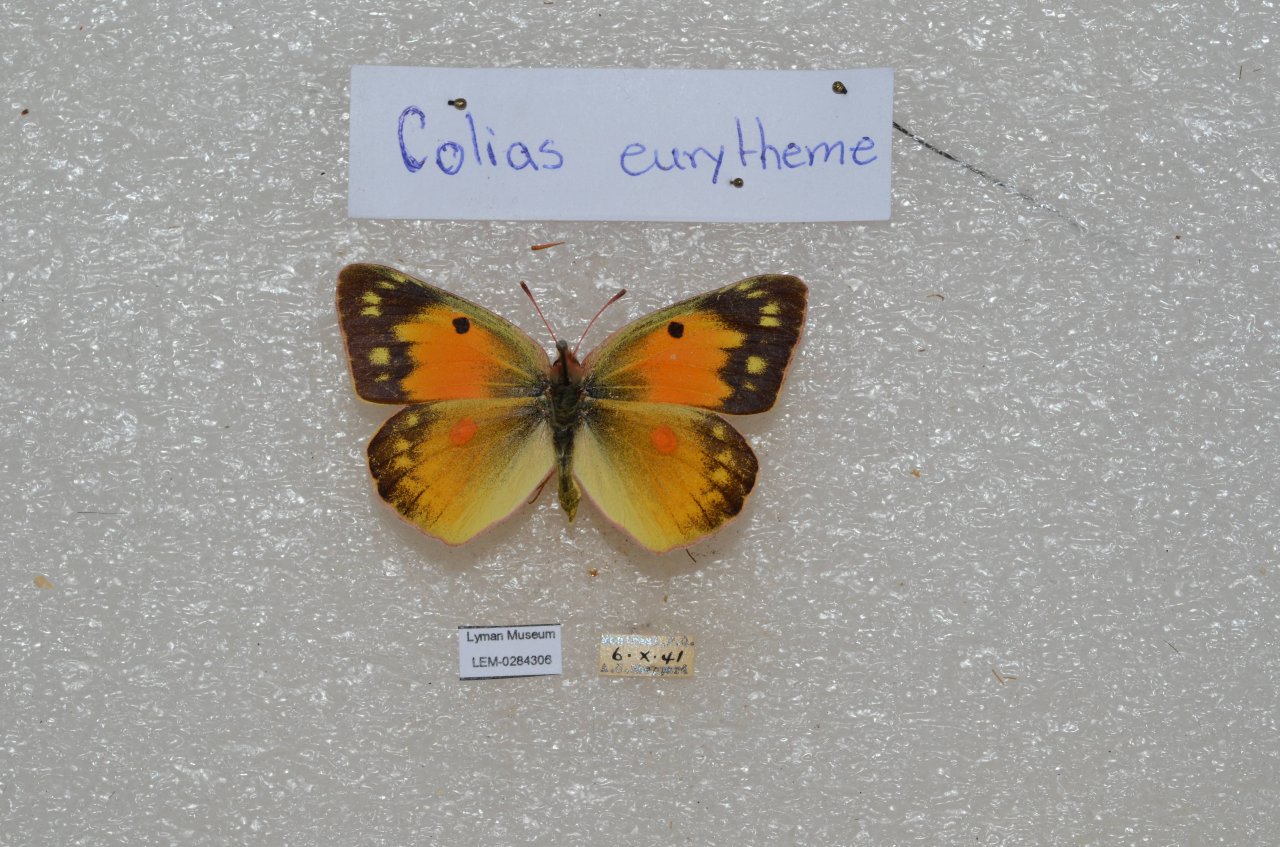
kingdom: Animalia
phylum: Arthropoda
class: Insecta
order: Lepidoptera
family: Pieridae
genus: Colias
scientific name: Colias eurytheme
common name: Orange Sulphur
